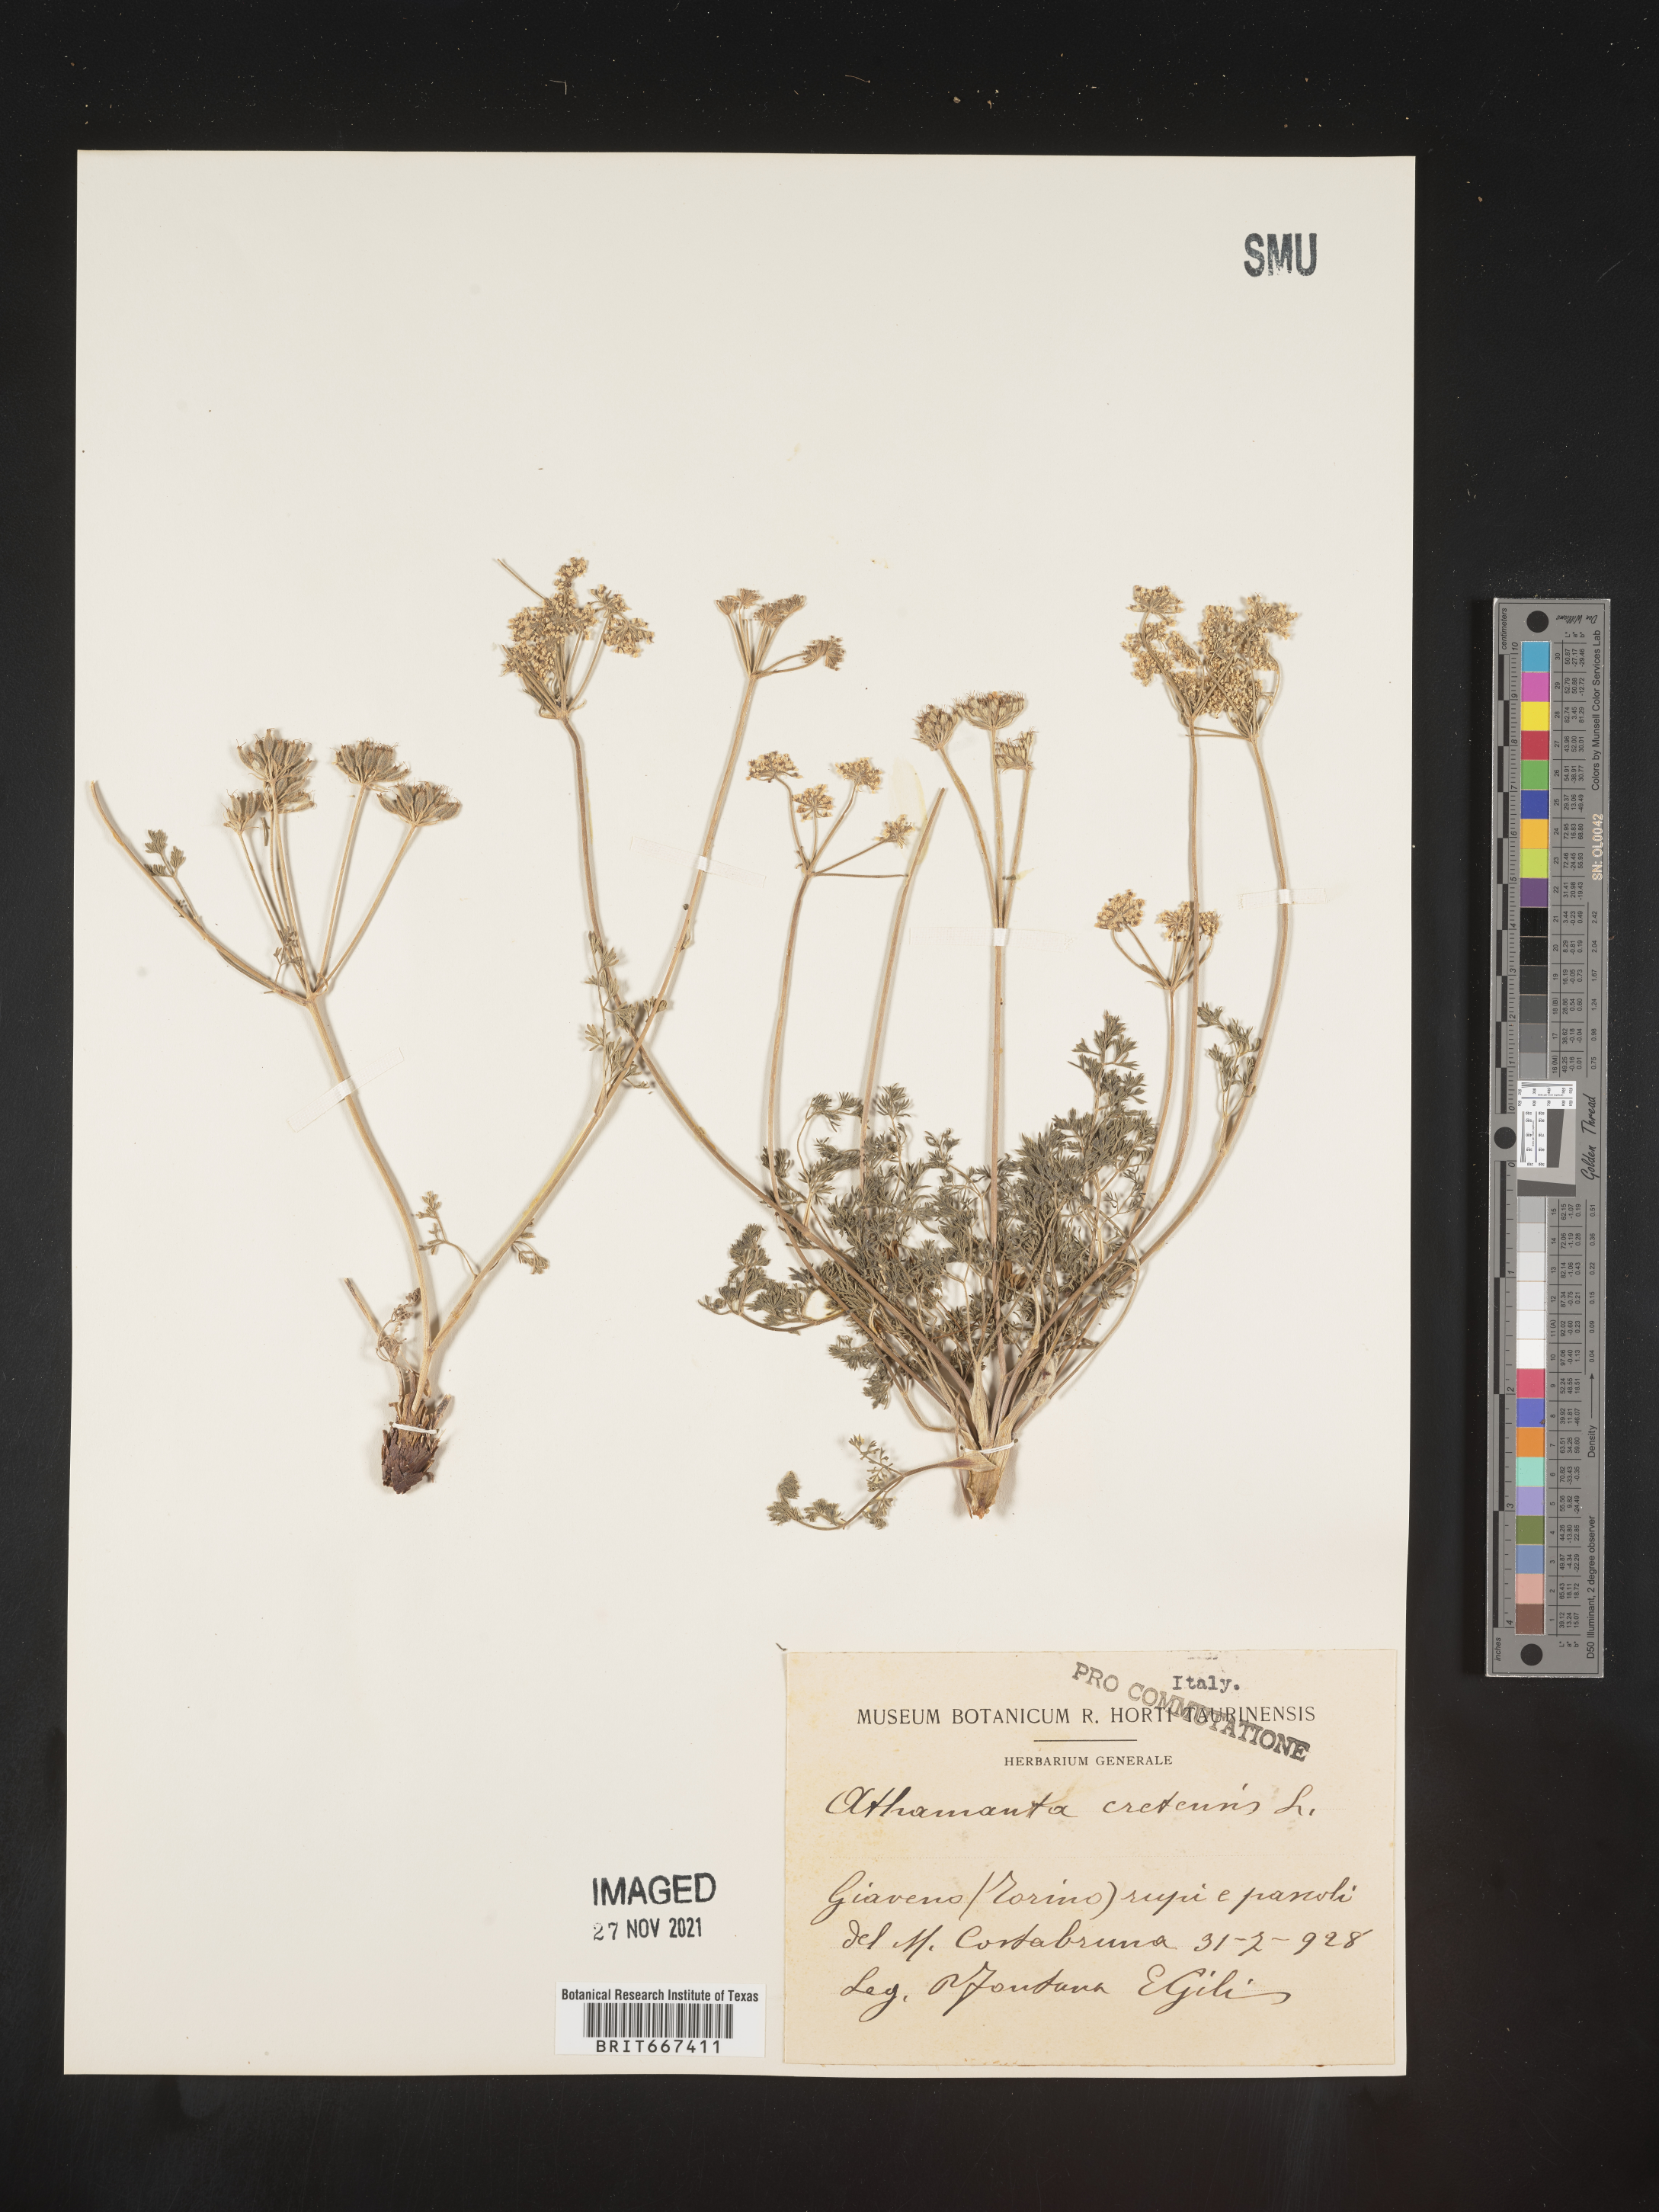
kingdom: Plantae
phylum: Tracheophyta
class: Magnoliopsida
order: Apiales
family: Apiaceae
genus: Athamanta
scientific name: Athamanta
